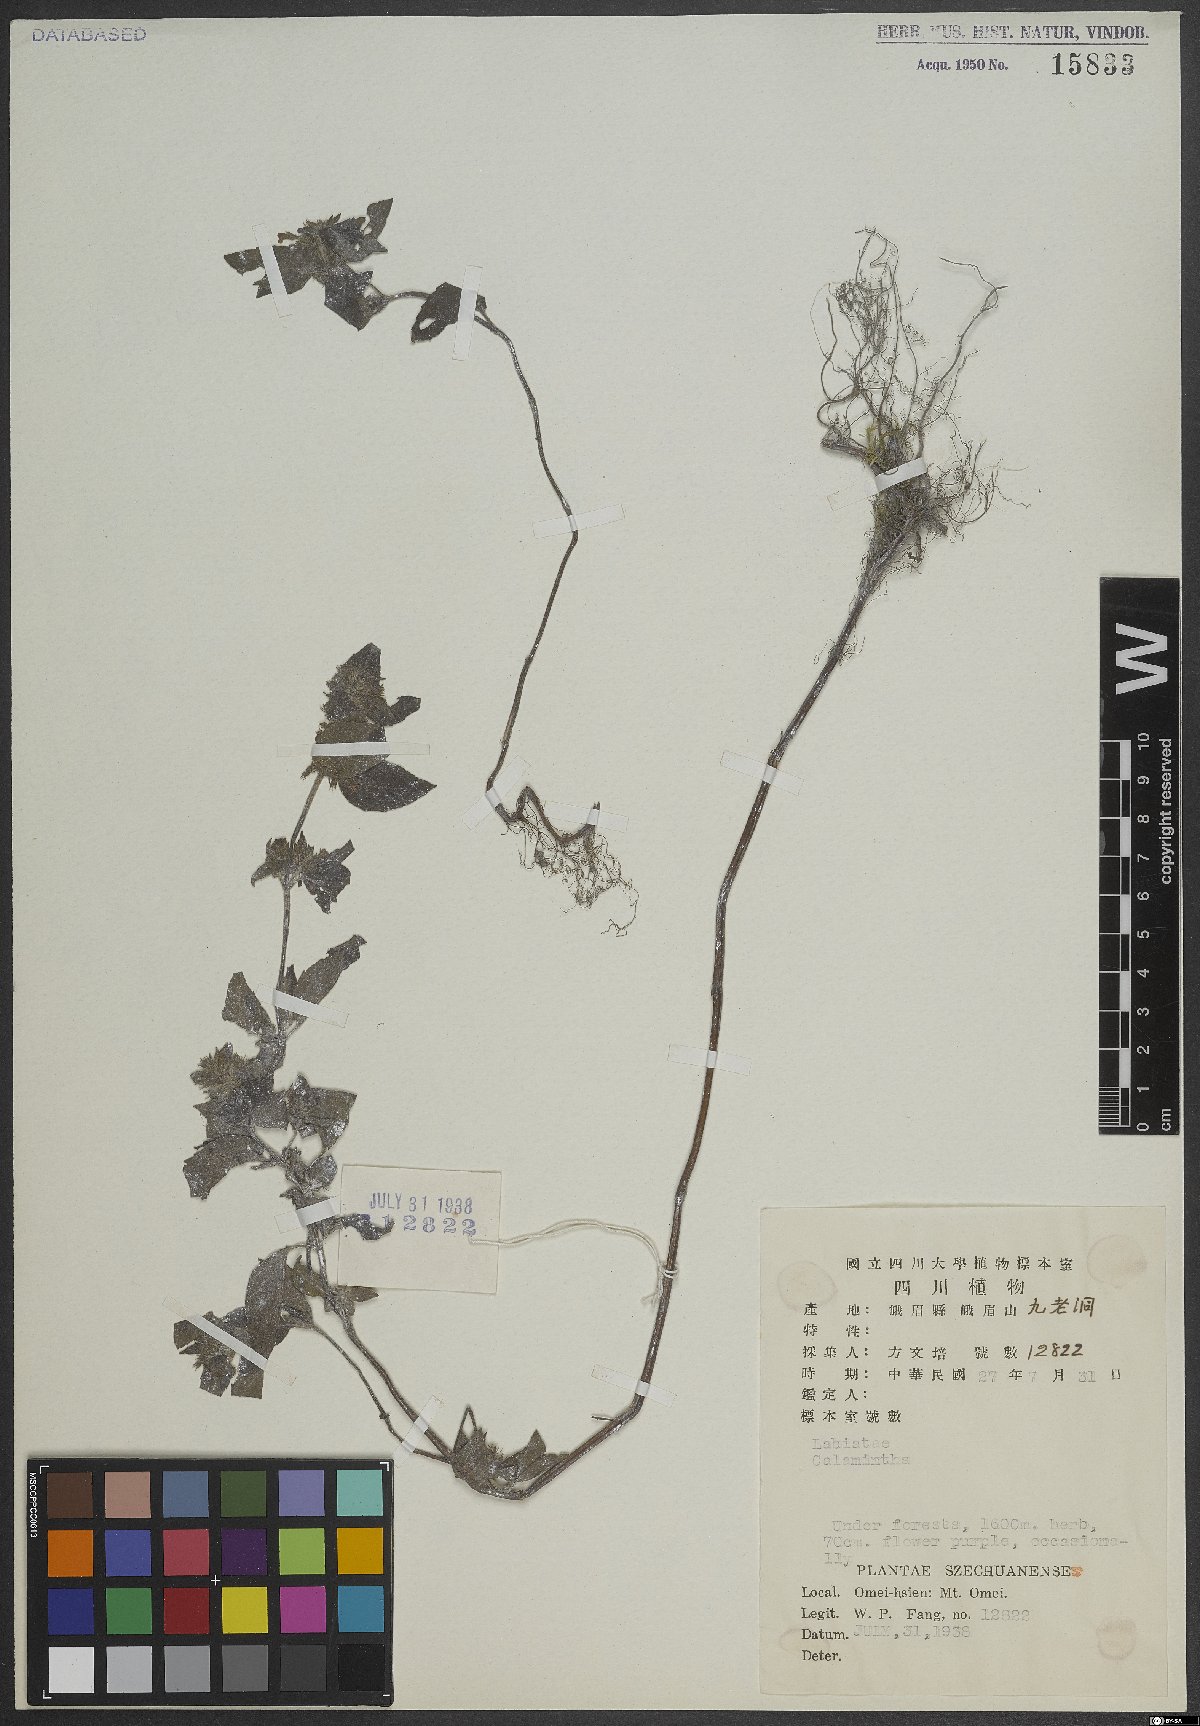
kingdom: Plantae
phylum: Tracheophyta
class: Magnoliopsida
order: Lamiales
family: Lamiaceae
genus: Calamintha
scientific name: Calamintha
